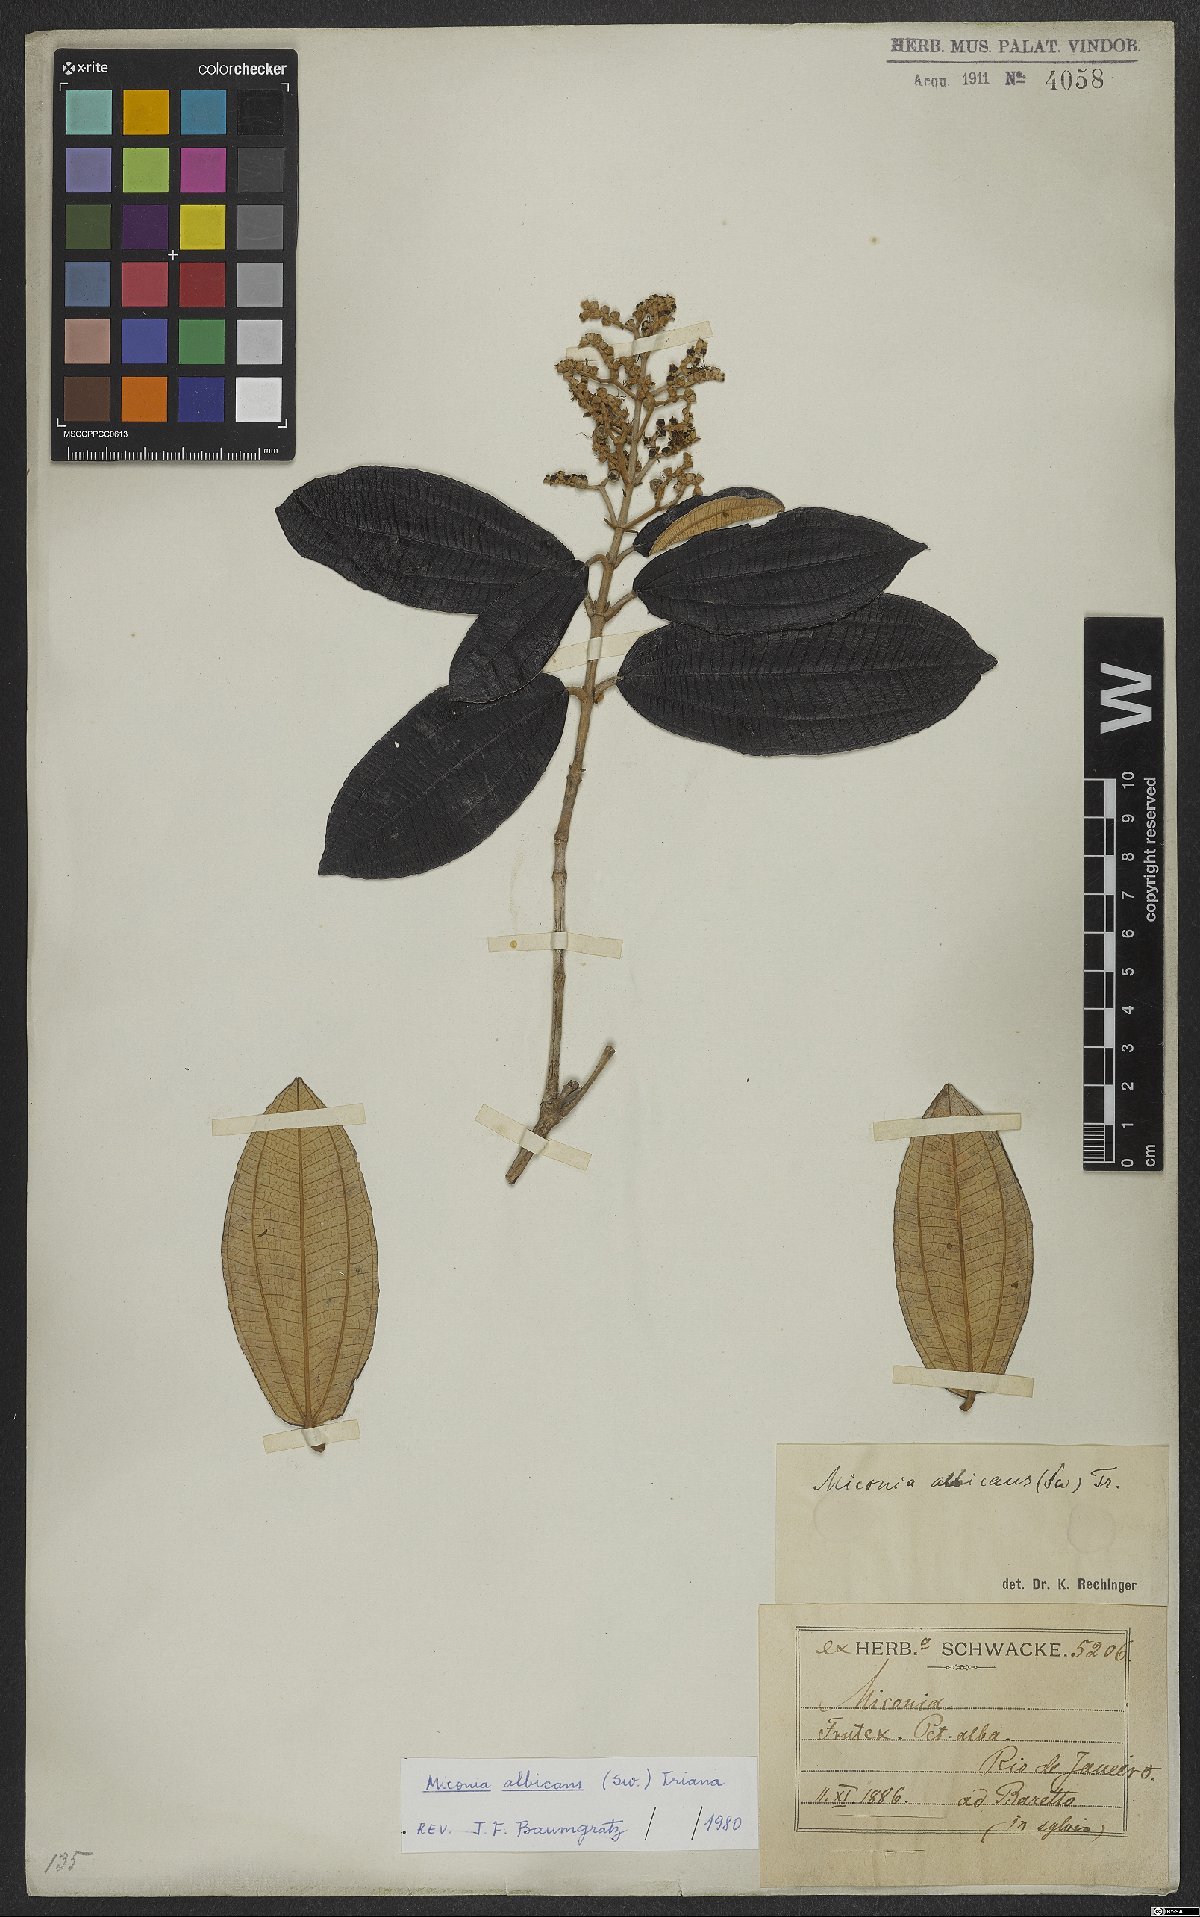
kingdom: Plantae
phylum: Tracheophyta
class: Magnoliopsida
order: Myrtales
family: Melastomataceae
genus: Miconia
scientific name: Miconia albicans
